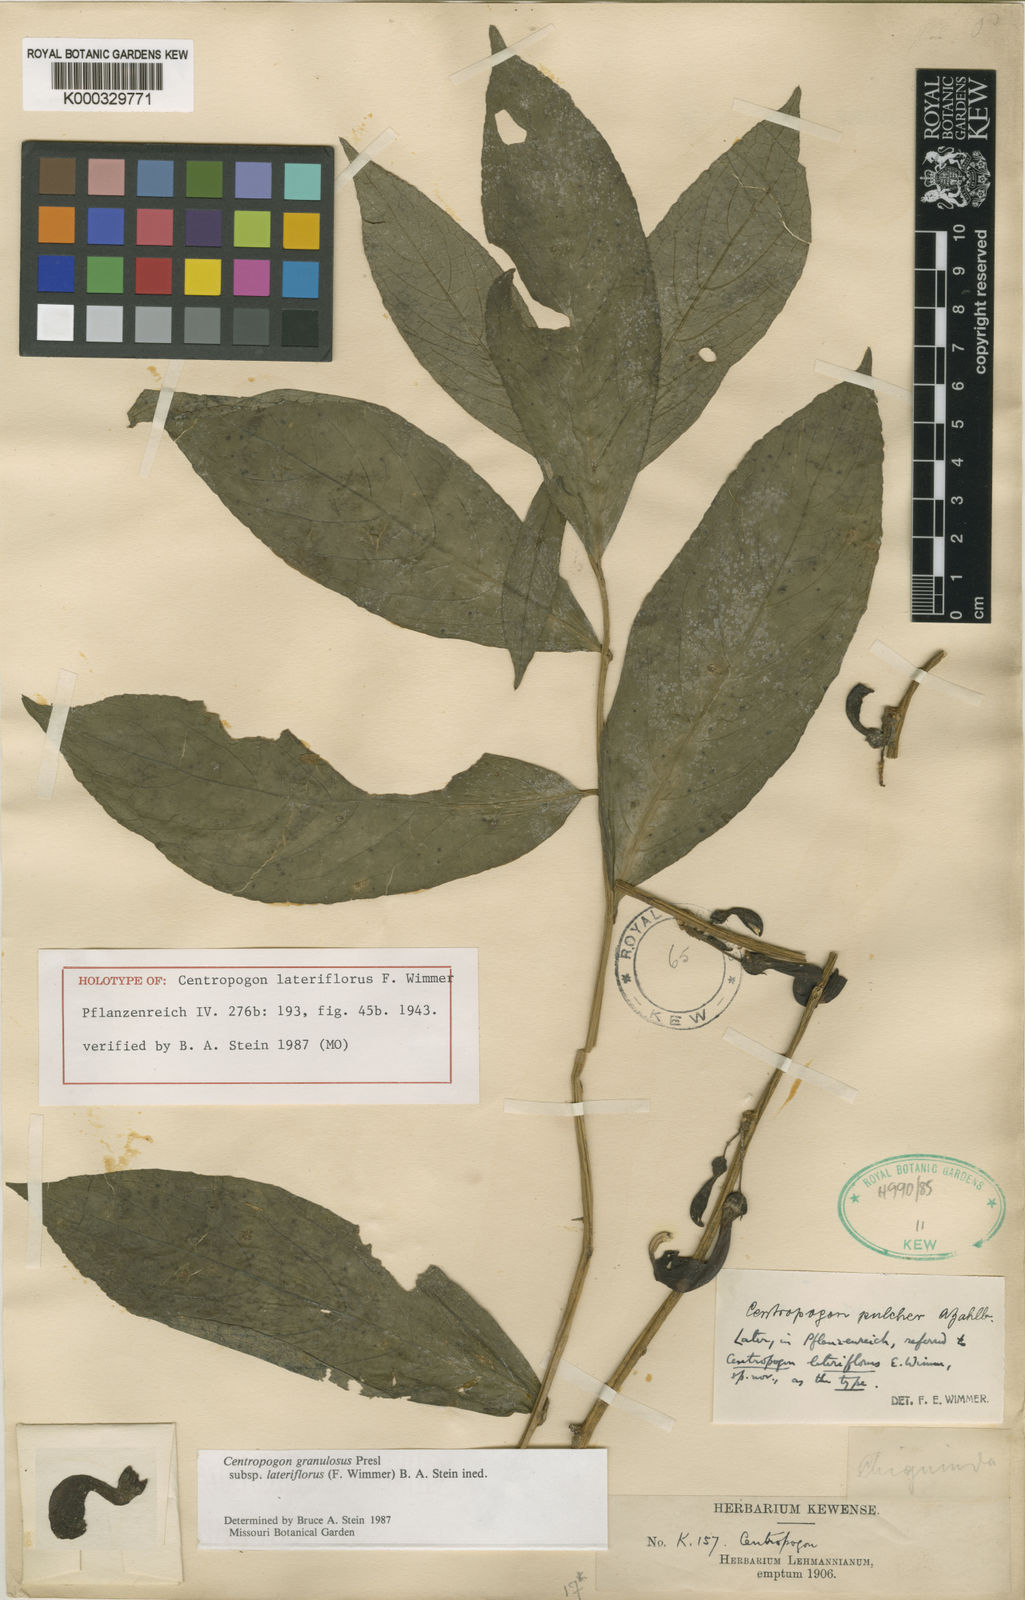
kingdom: Plantae
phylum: Tracheophyta
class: Magnoliopsida
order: Asterales
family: Campanulaceae
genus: Centropogon
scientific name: Centropogon granulosus
